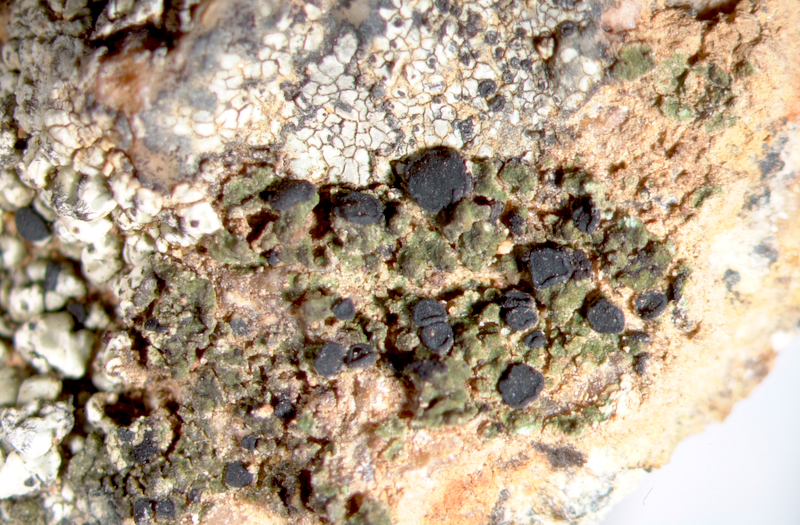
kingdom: Fungi
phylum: Ascomycota
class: Lecanoromycetes
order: Caliciales
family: Caliciaceae
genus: Buellia
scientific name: Buellia
